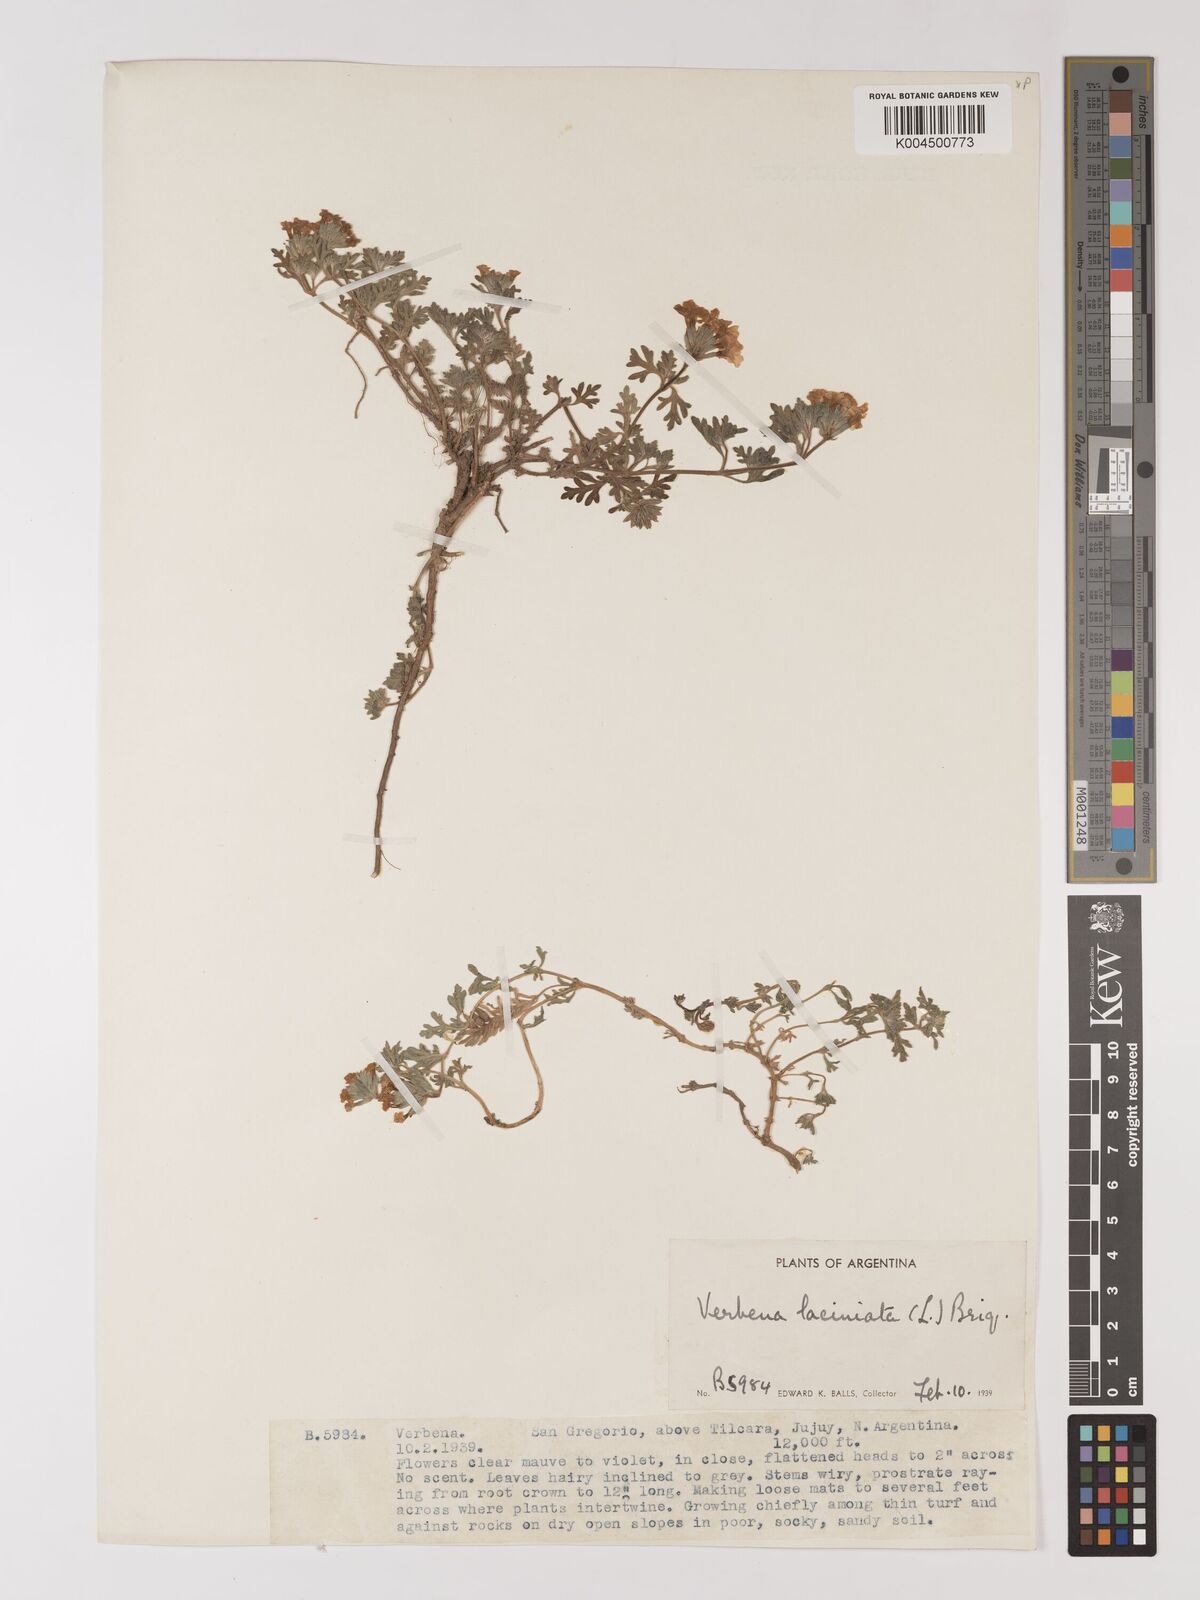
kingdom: Plantae
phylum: Tracheophyta
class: Magnoliopsida
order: Lamiales
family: Verbenaceae
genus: Verbena
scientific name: Verbena laciniata
